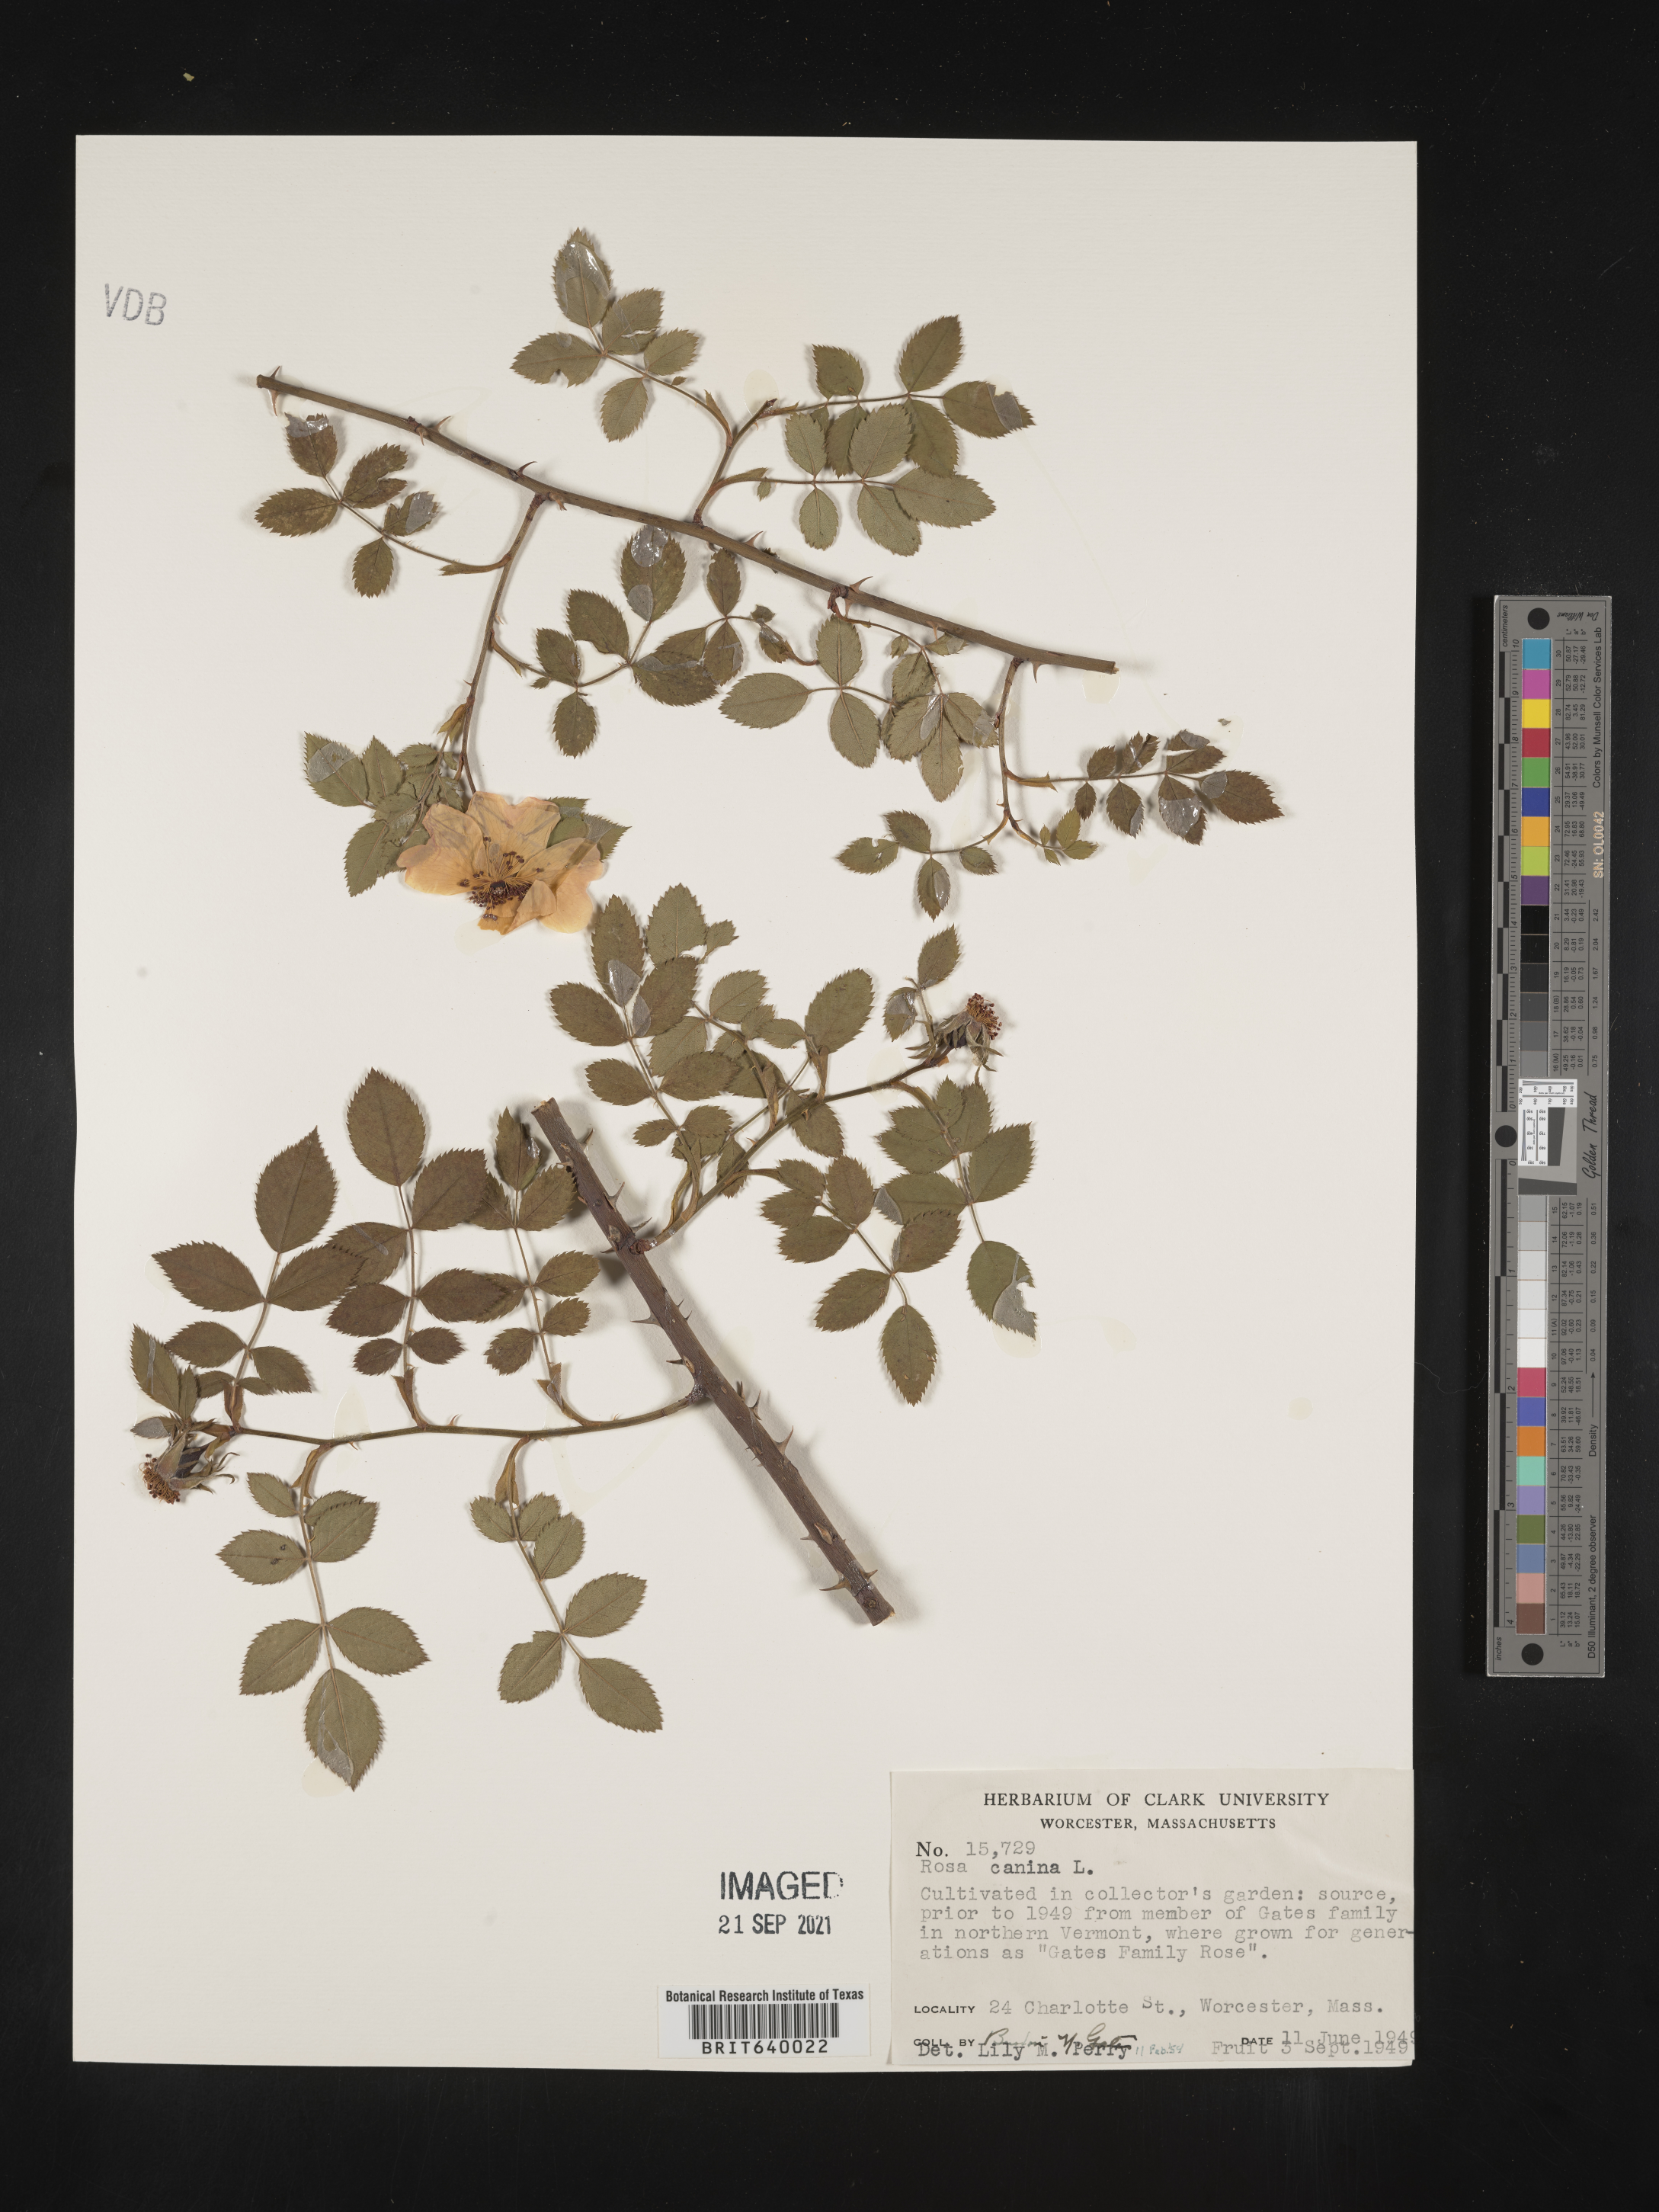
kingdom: Plantae
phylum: Tracheophyta
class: Magnoliopsida
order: Rosales
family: Rosaceae
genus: Rosa
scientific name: Rosa
